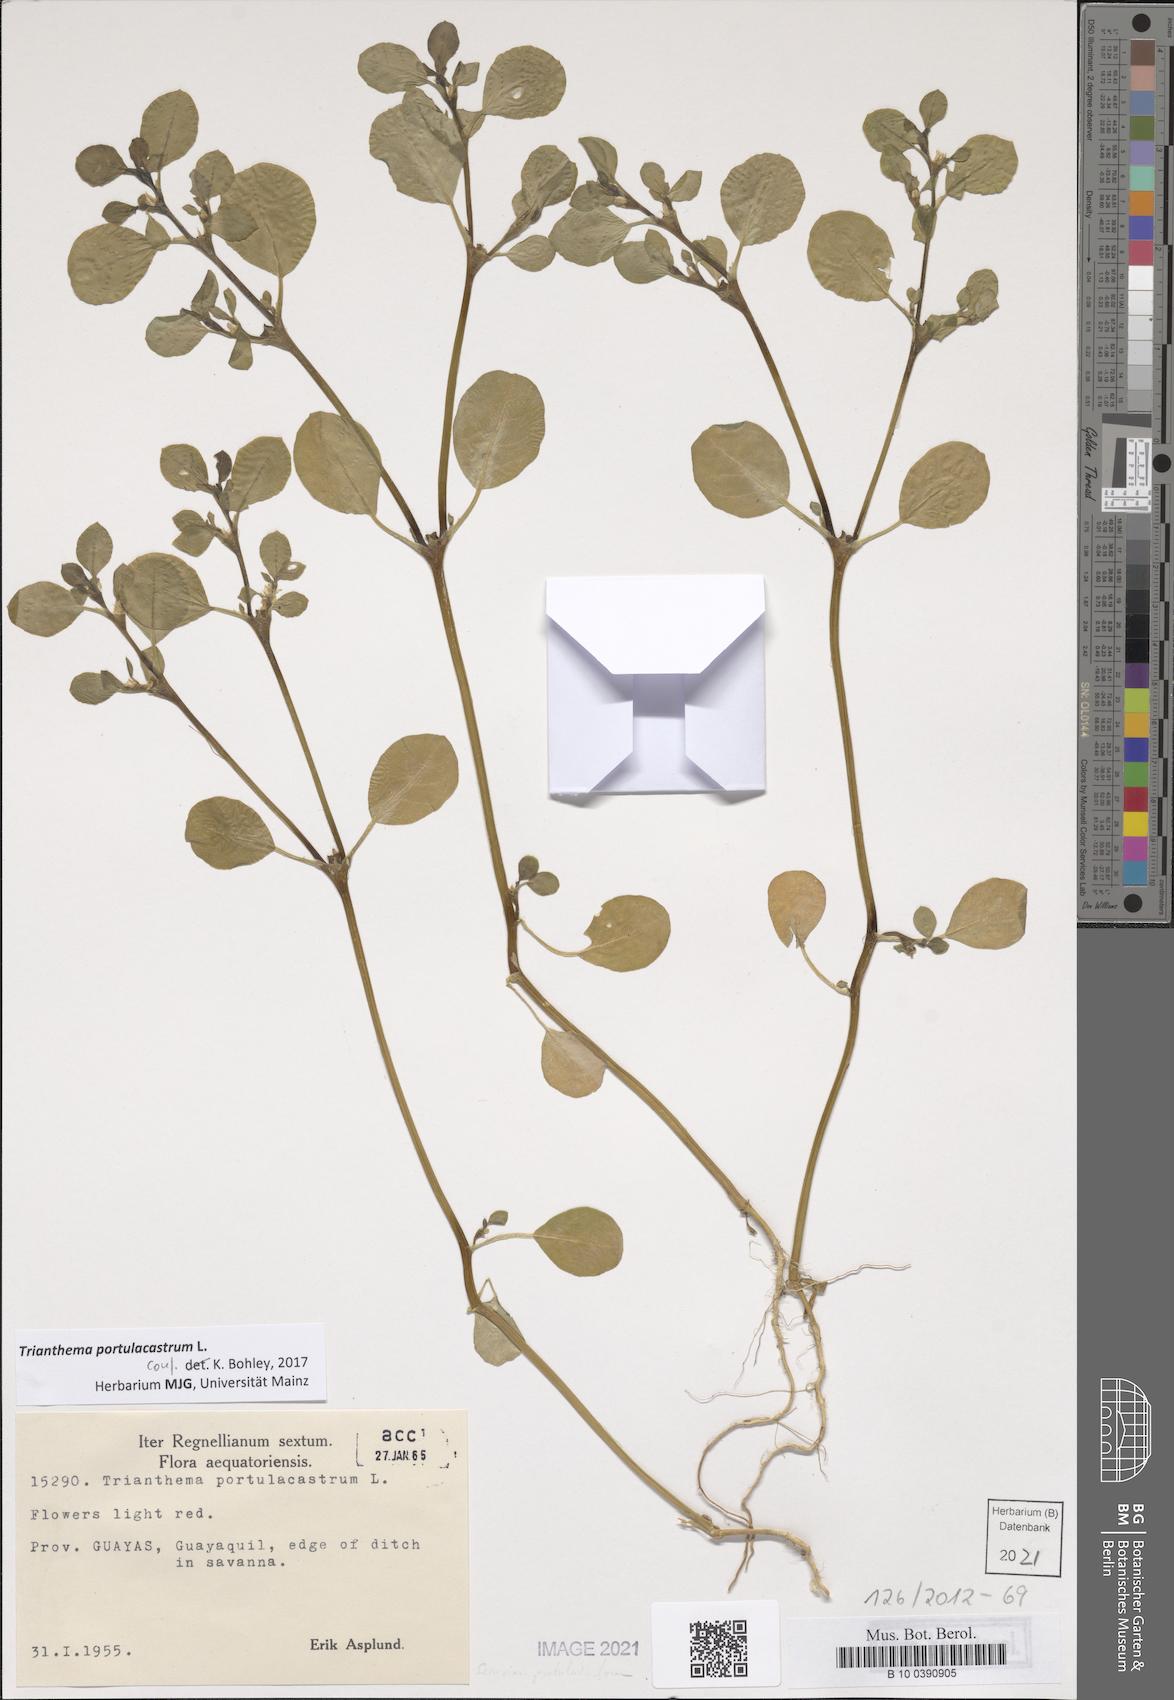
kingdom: Plantae
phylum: Tracheophyta
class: Magnoliopsida
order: Caryophyllales
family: Aizoaceae
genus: Trianthema
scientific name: Trianthema portulacastrum
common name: Desert horsepurslane
